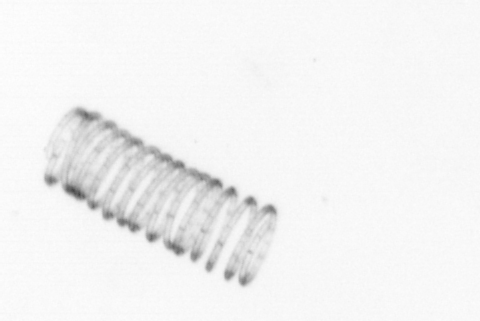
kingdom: Chromista
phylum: Ochrophyta
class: Bacillariophyceae
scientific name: Bacillariophyceae
